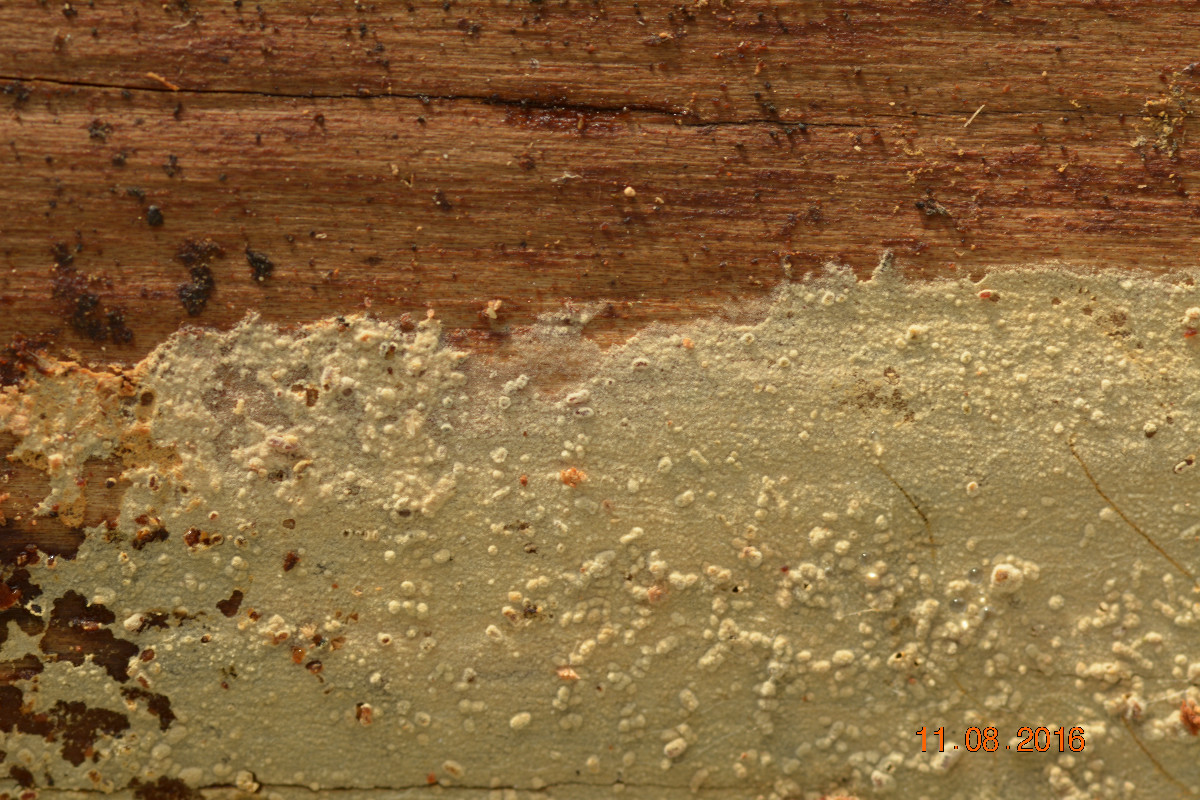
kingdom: Fungi
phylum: Basidiomycota
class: Agaricomycetes
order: Hymenochaetales
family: Hyphodontiaceae
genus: Hyphodontia
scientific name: Hyphodontia alutaria
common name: flaskerenser-nålehinde
